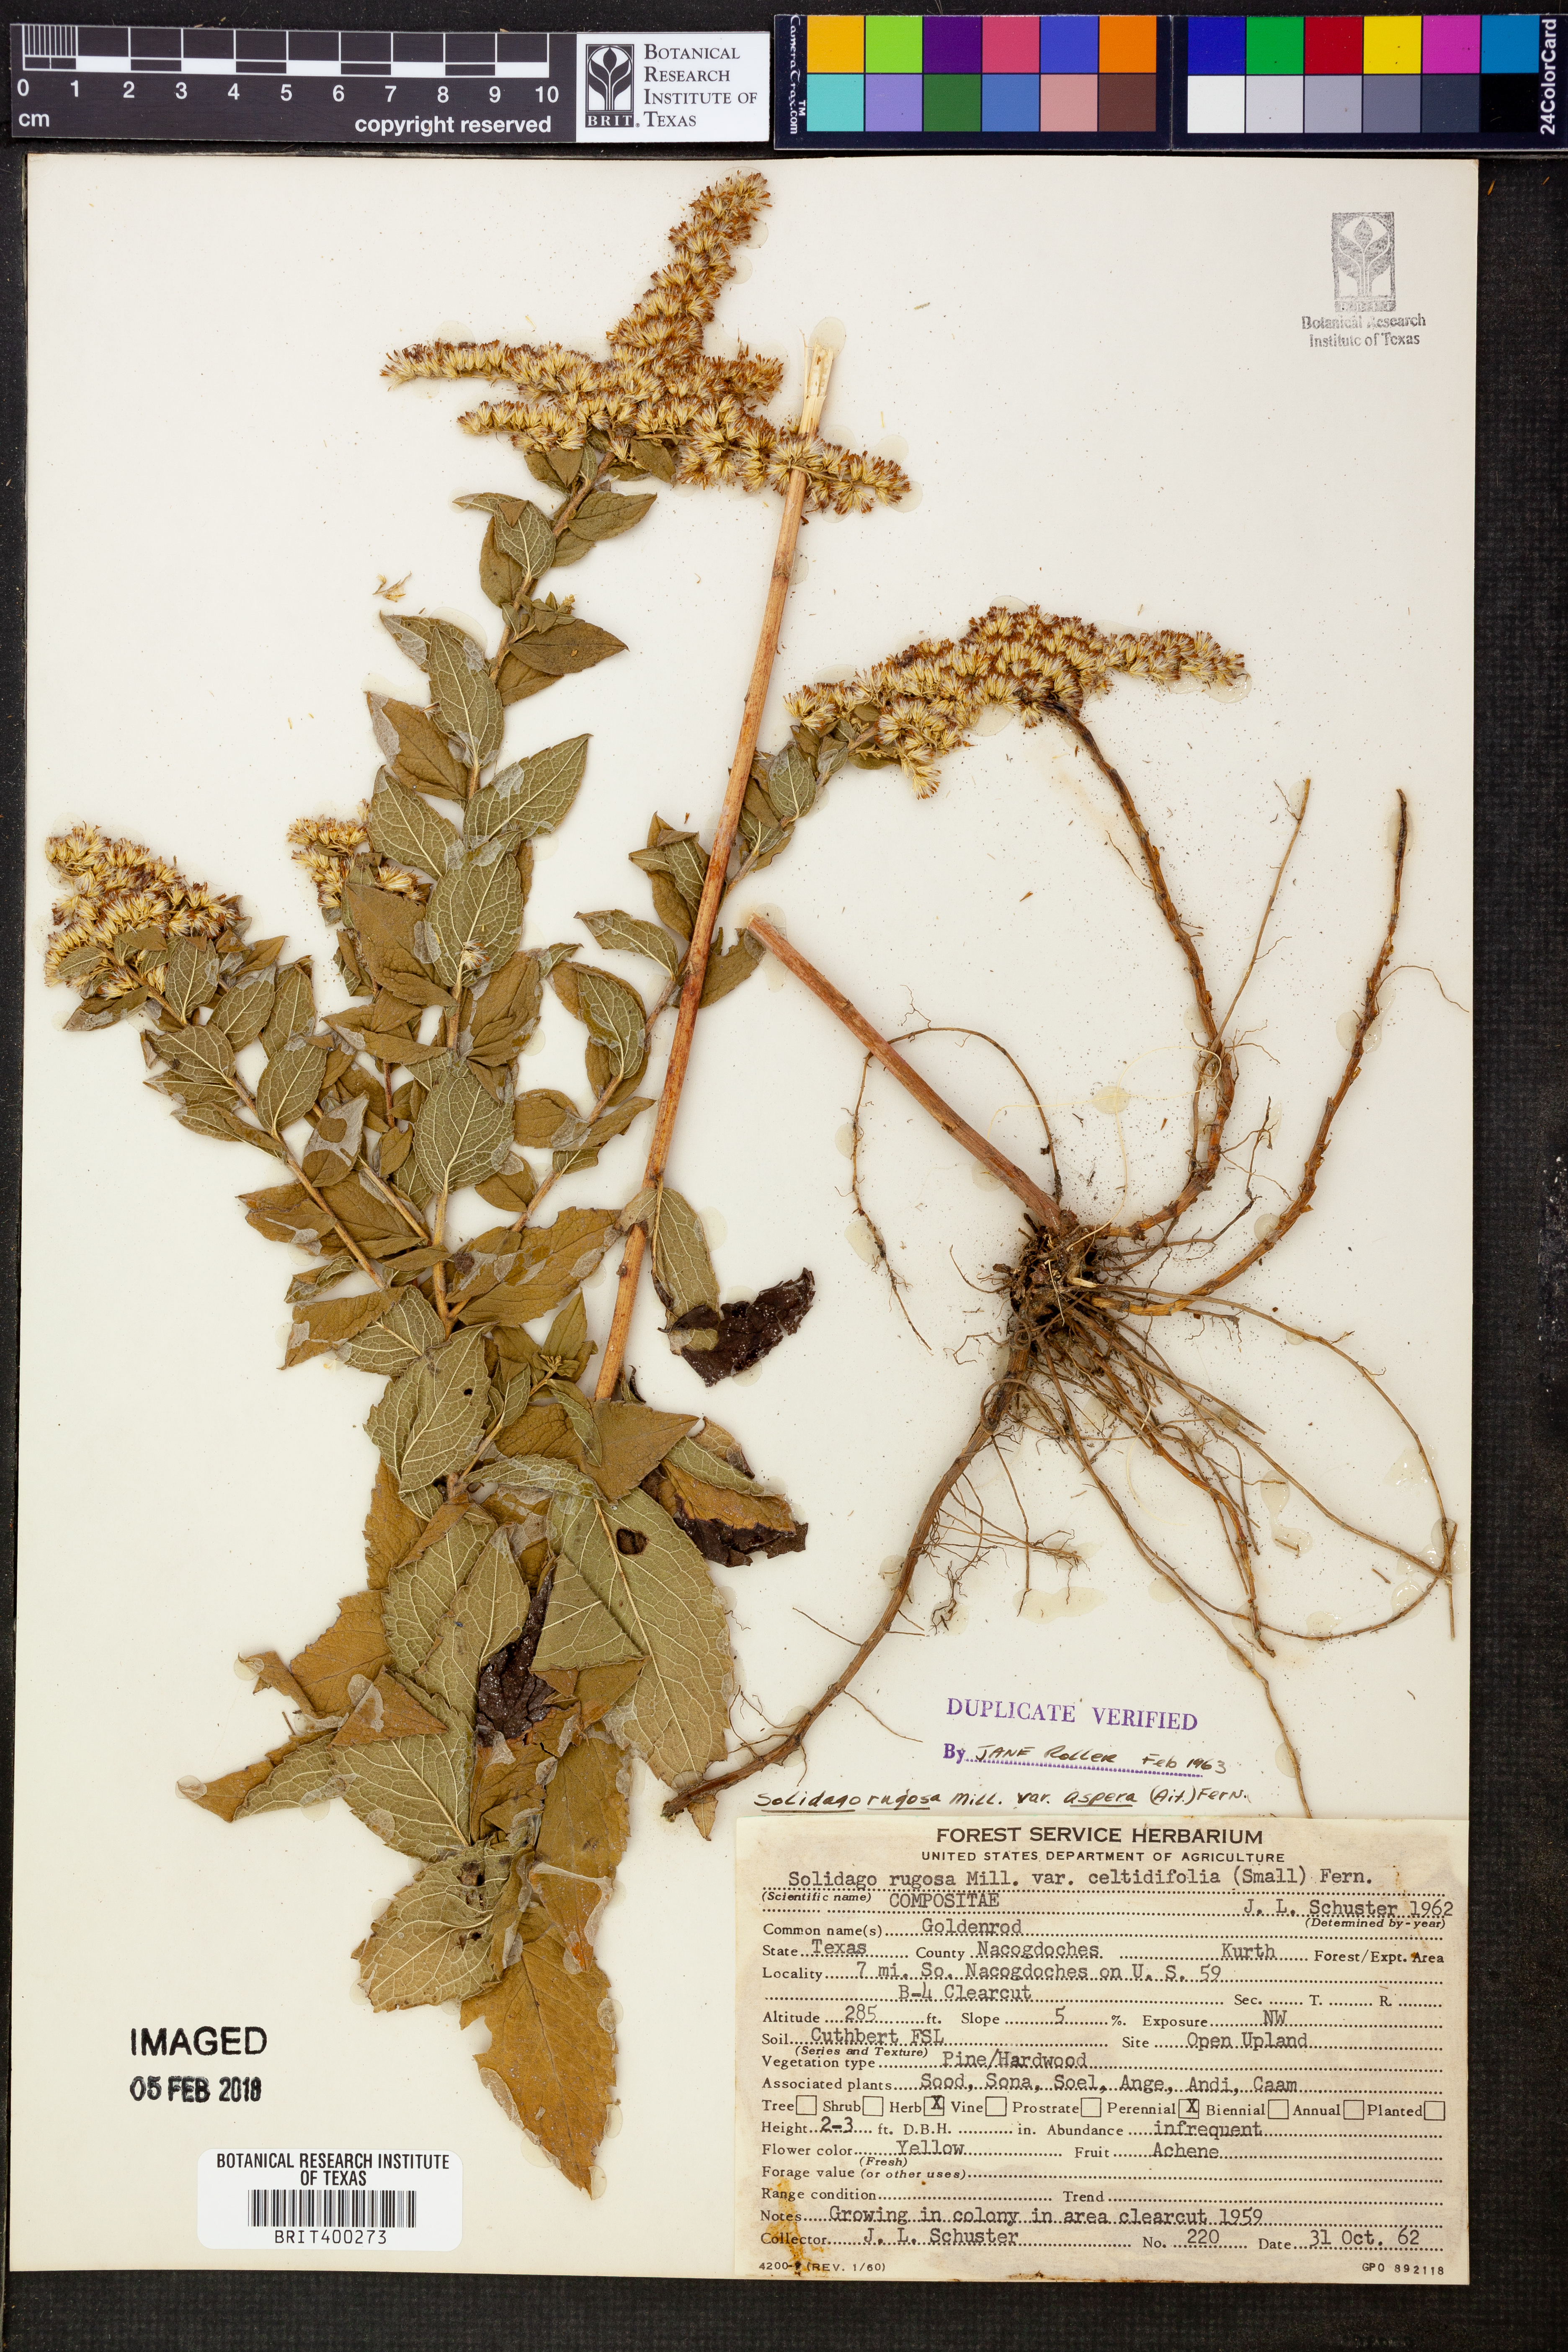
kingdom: Plantae
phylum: Tracheophyta
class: Magnoliopsida
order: Asterales
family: Asteraceae
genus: Solidago
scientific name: Solidago rugosa
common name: Rough-stemmed goldenrod
